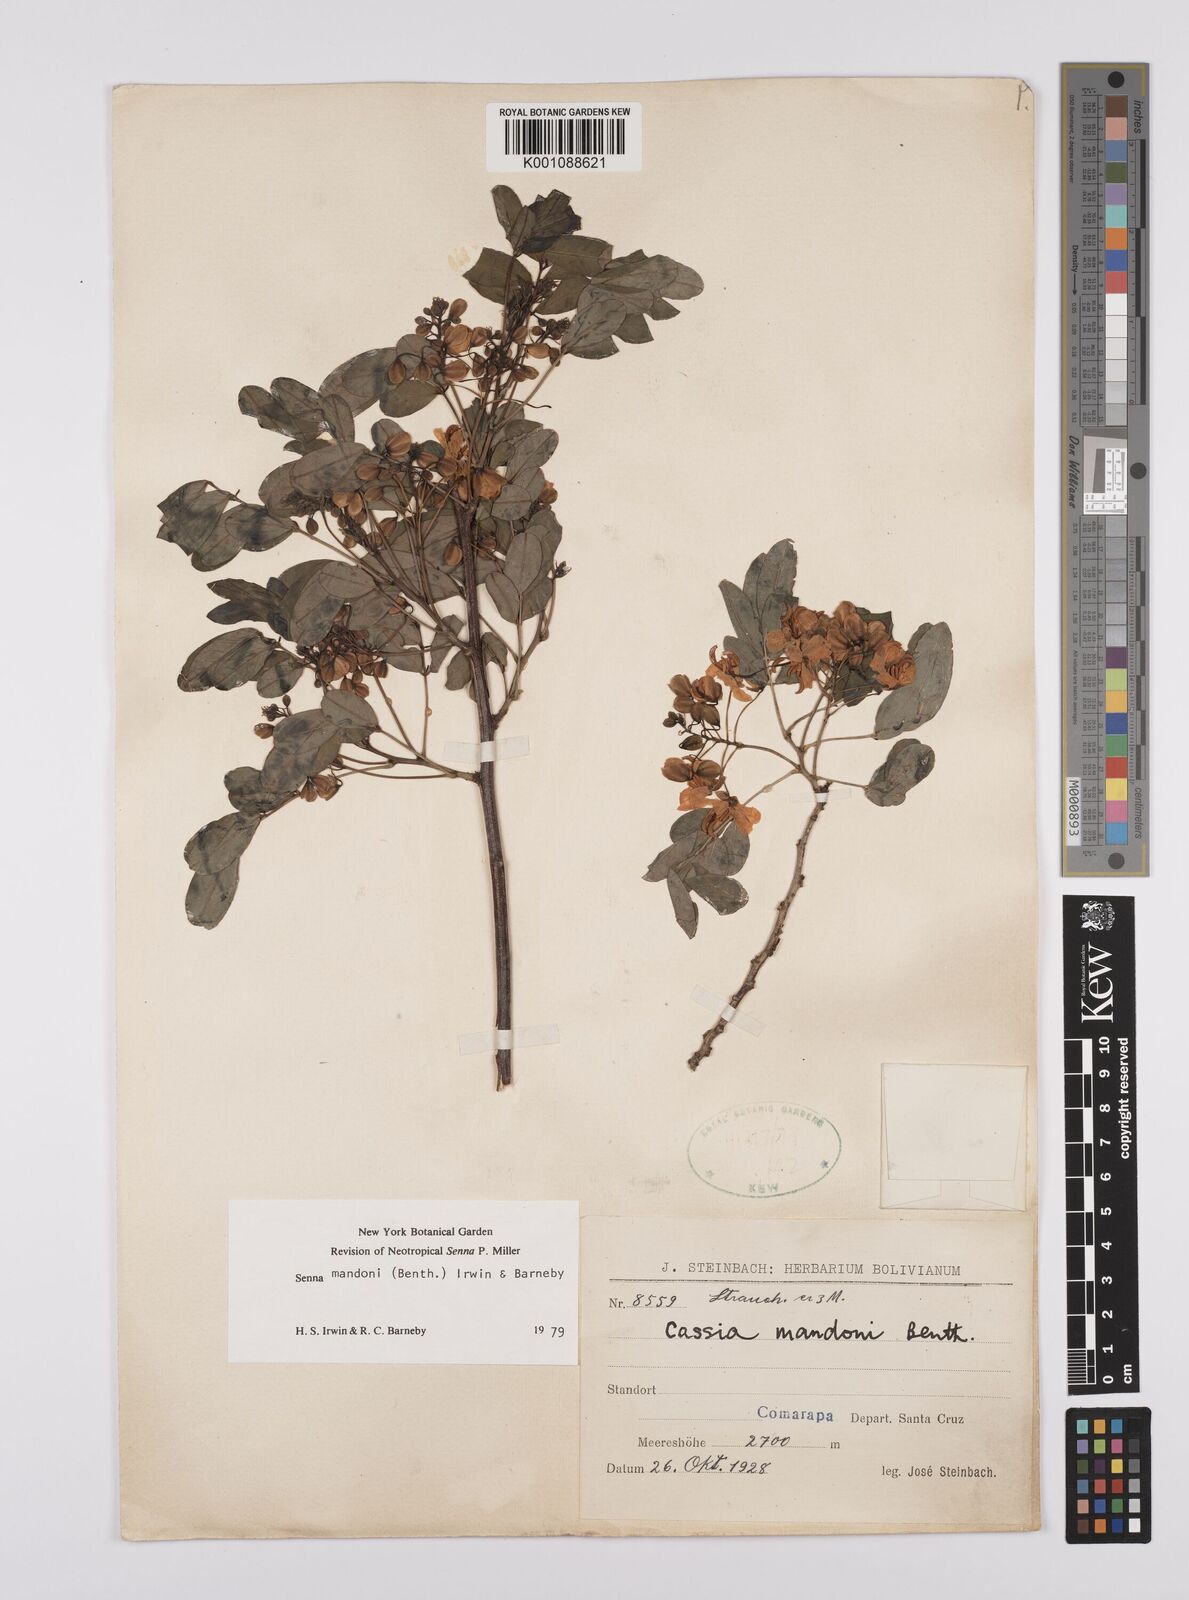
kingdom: Plantae
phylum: Tracheophyta
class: Magnoliopsida
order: Fabales
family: Fabaceae
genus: Senna
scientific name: Senna mandonii
